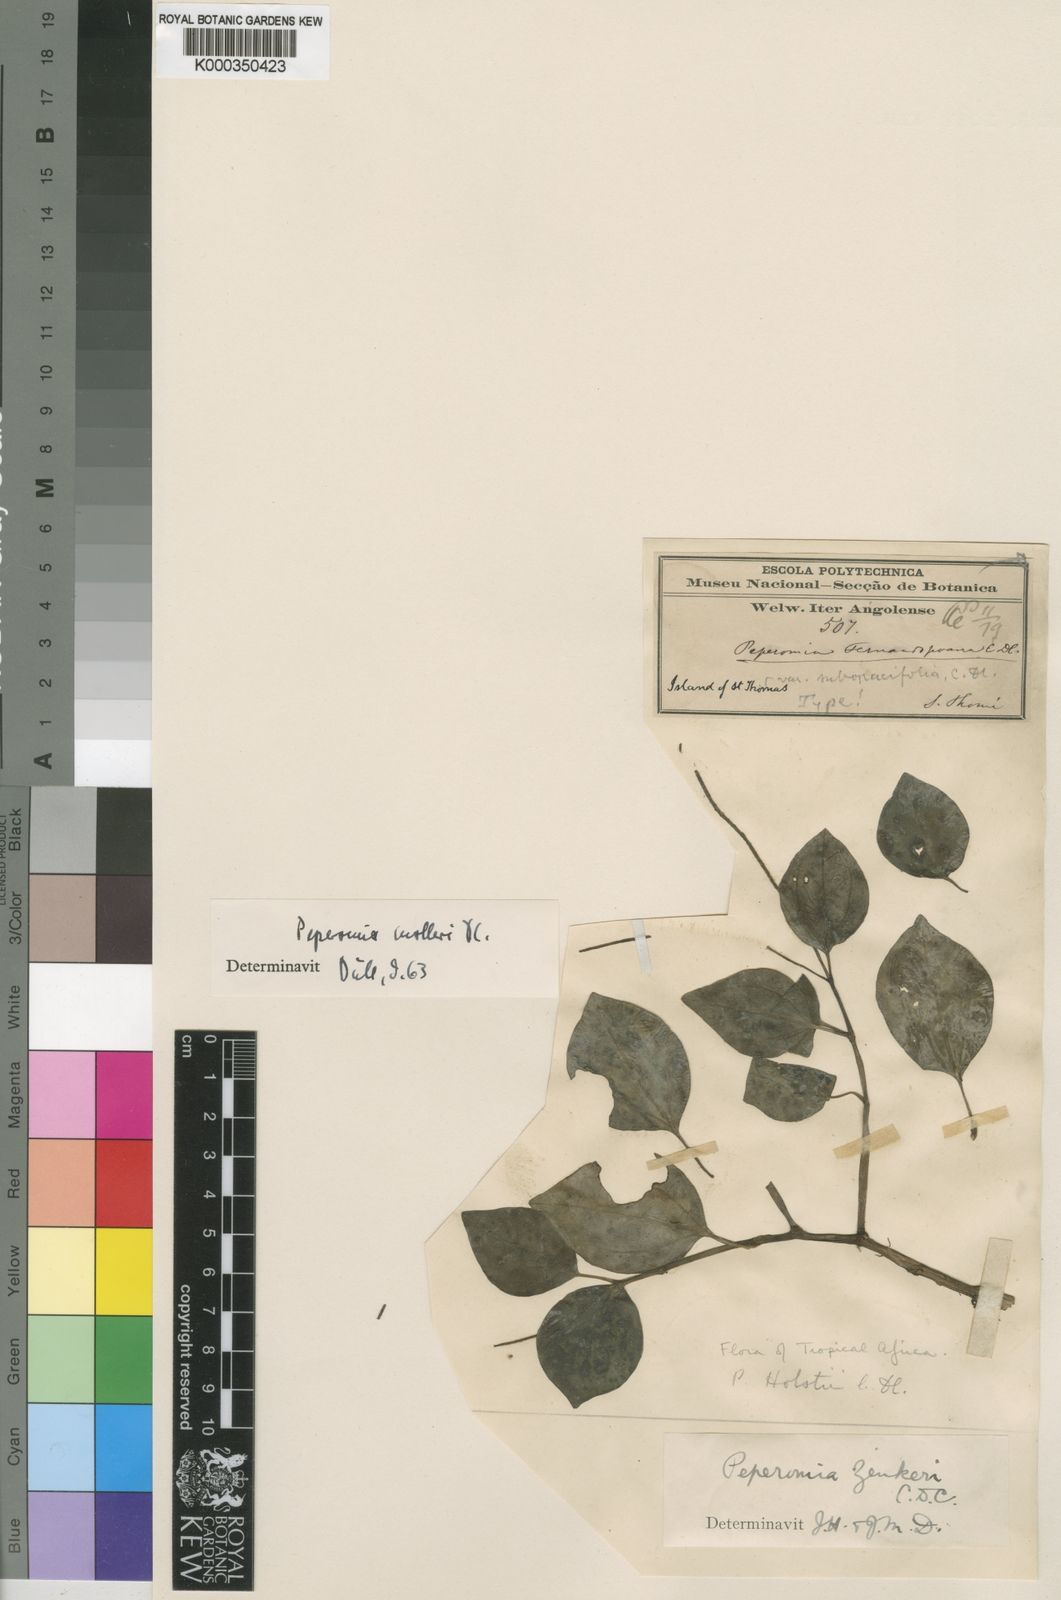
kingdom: Plantae
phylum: Tracheophyta
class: Magnoliopsida
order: Piperales
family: Piperaceae
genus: Peperomia
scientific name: Peperomia molleri
